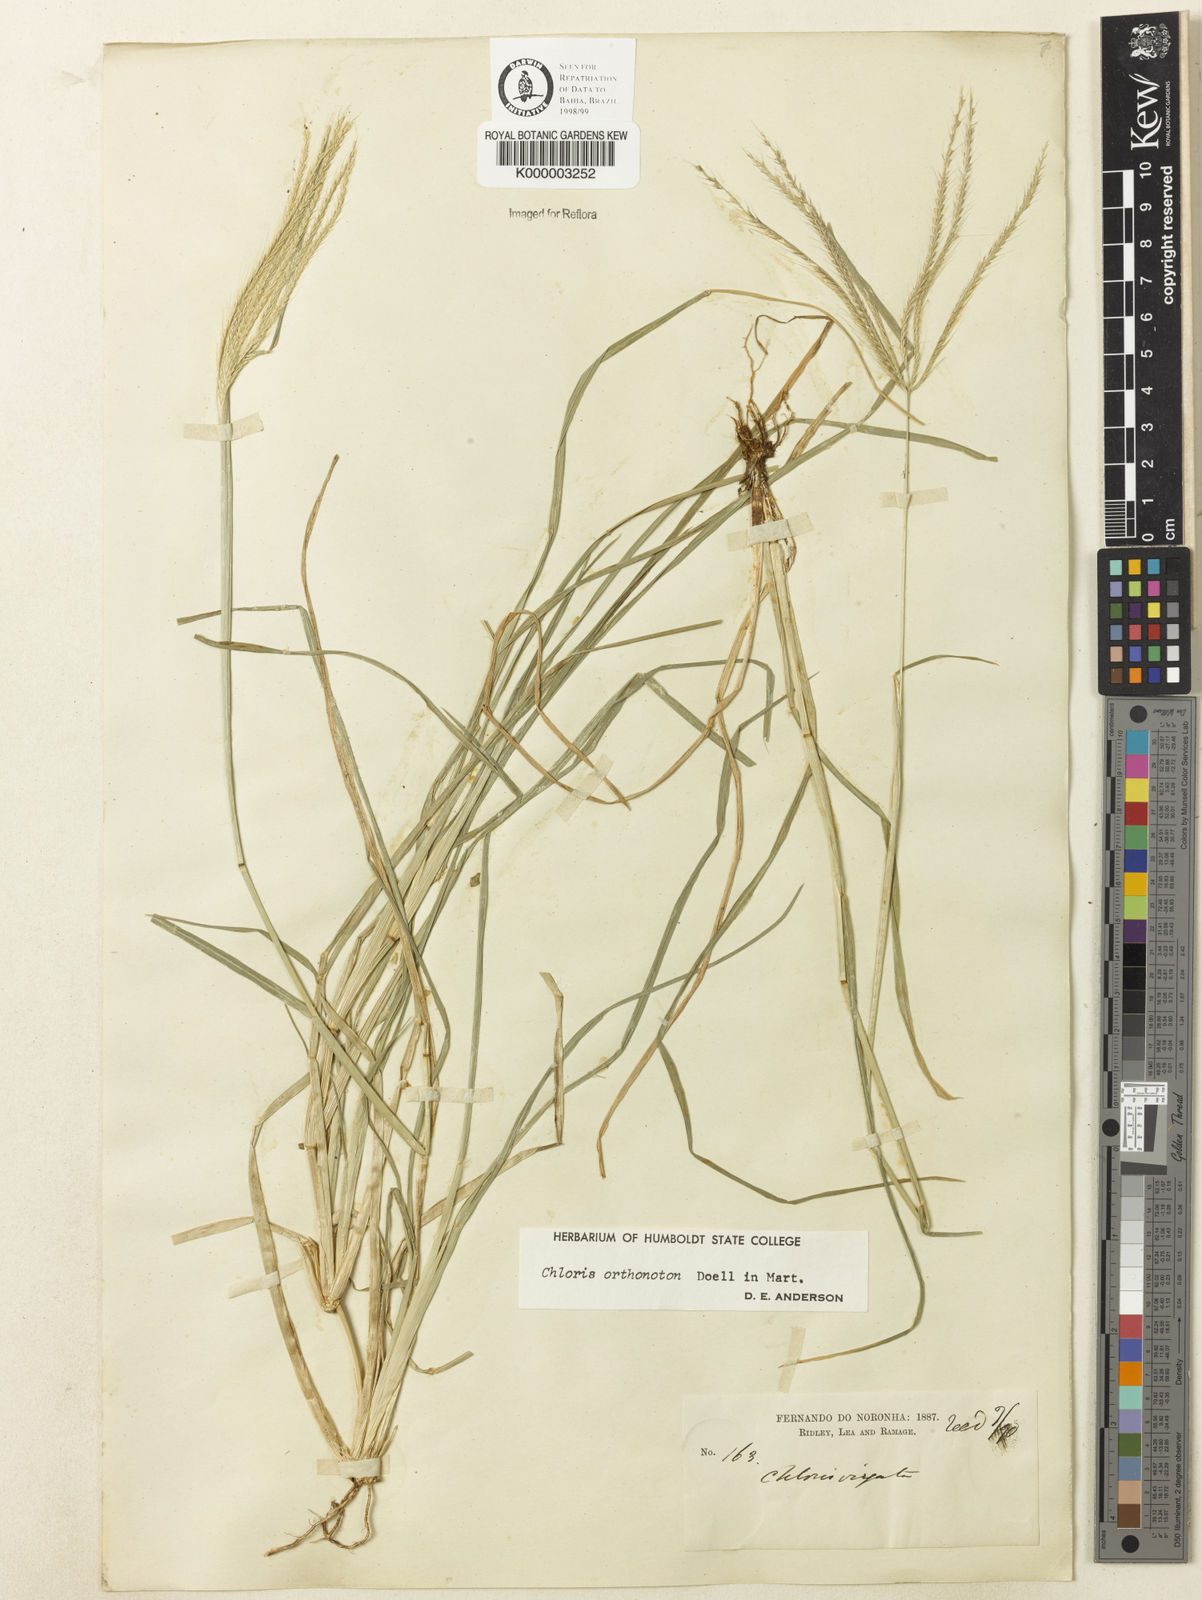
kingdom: Plantae
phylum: Tracheophyta
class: Liliopsida
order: Poales
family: Poaceae
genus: Chloris
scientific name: Chloris
